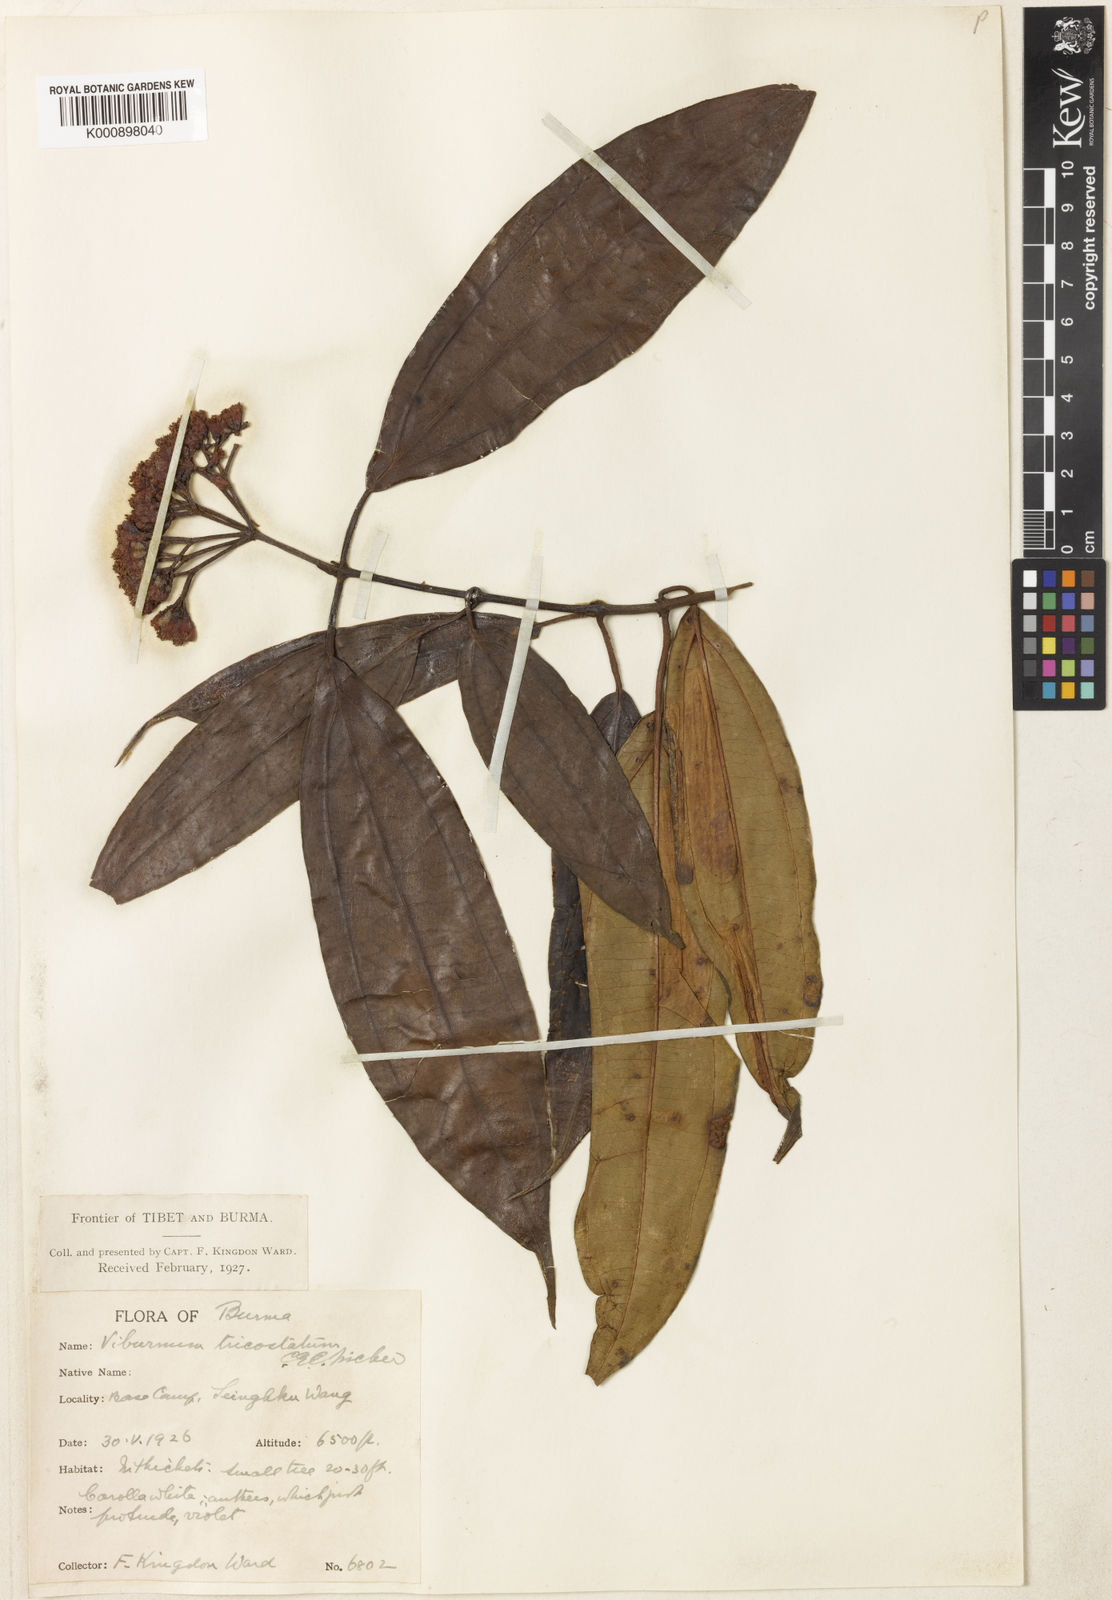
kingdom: Plantae
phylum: Tracheophyta
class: Magnoliopsida
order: Dipsacales
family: Viburnaceae
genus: Viburnum
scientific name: Viburnum tricostatum
